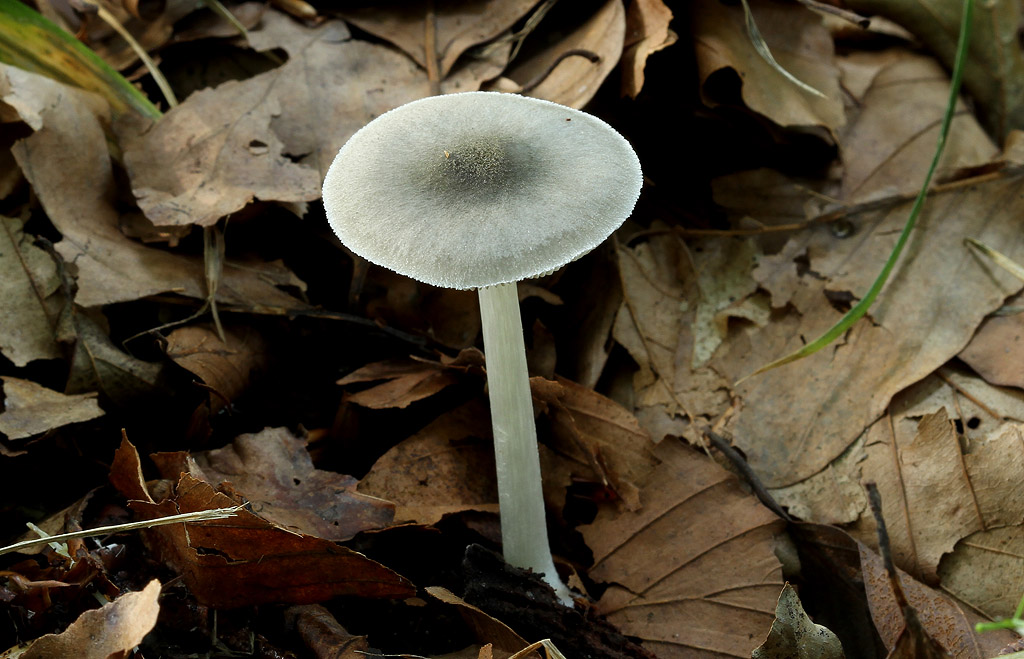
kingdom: Fungi
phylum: Basidiomycota
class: Agaricomycetes
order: Agaricales
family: Pluteaceae
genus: Pluteus
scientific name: Pluteus salicinus
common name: stiv skærmhat
